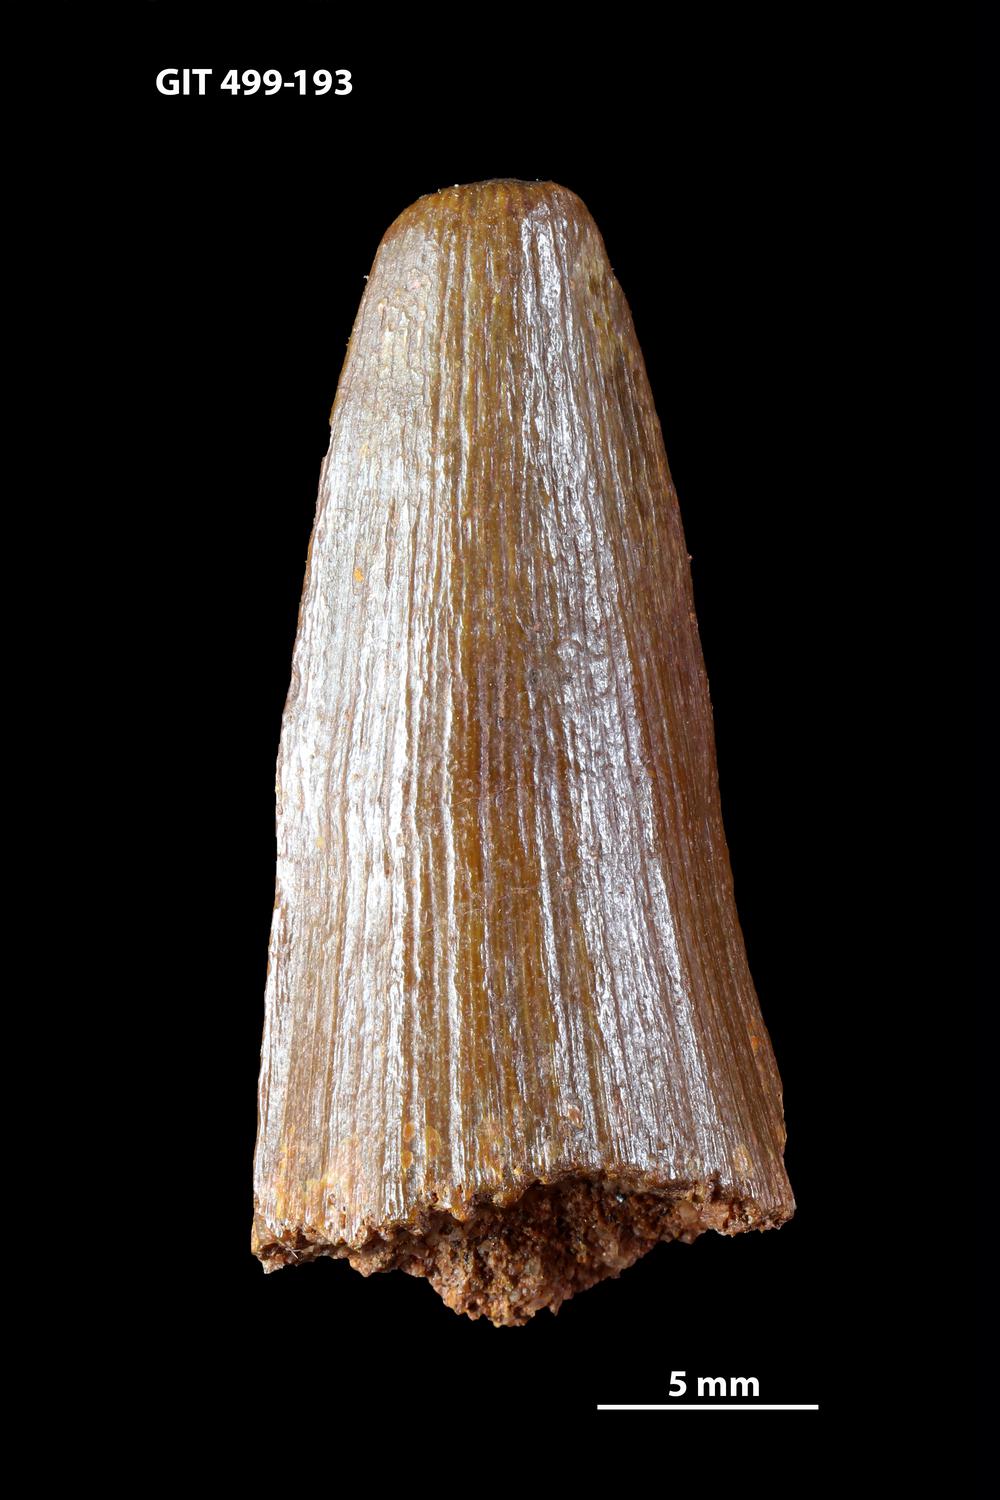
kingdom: Animalia
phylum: Chordata
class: Coelacanthi
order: Coelacanthiformes
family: Miguashaiidae
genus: Miguashaia
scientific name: Miguashaia grossi
